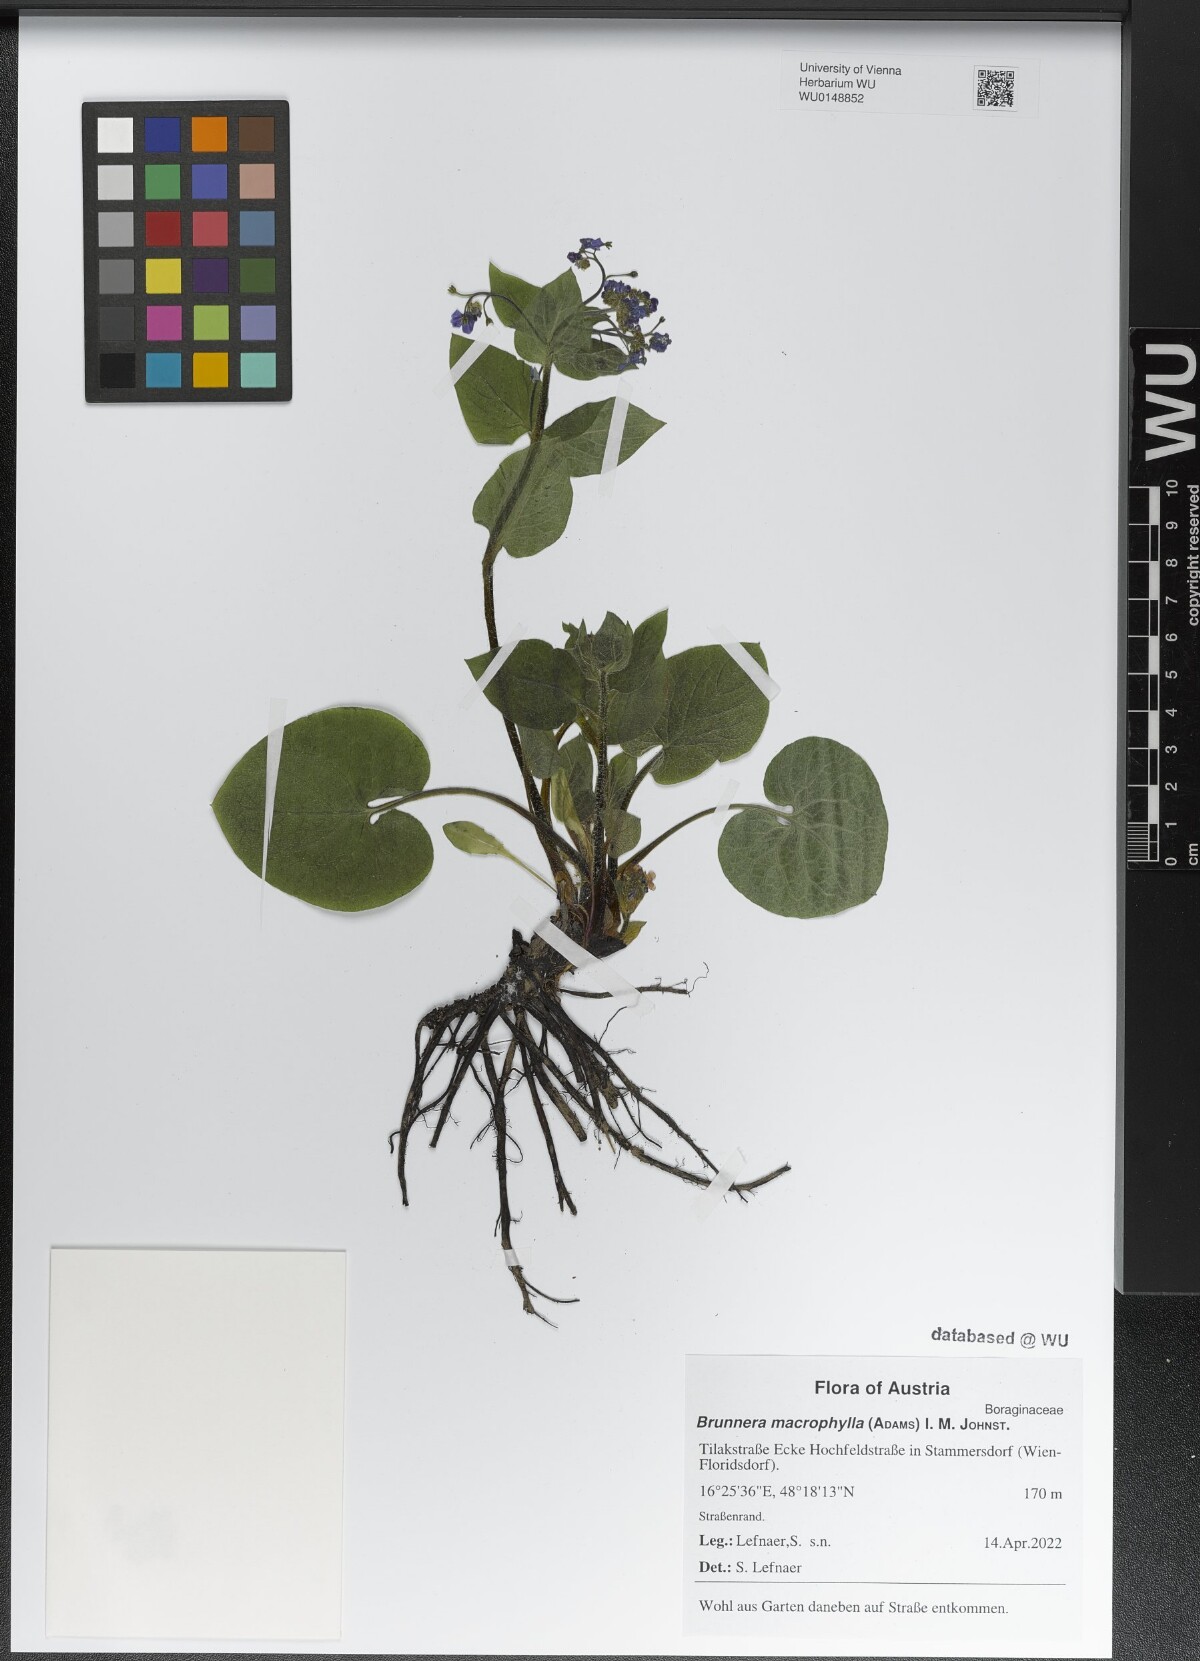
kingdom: Plantae
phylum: Tracheophyta
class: Magnoliopsida
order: Boraginales
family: Boraginaceae
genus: Brunnera
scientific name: Brunnera macrophylla
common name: Great forget-me-not
